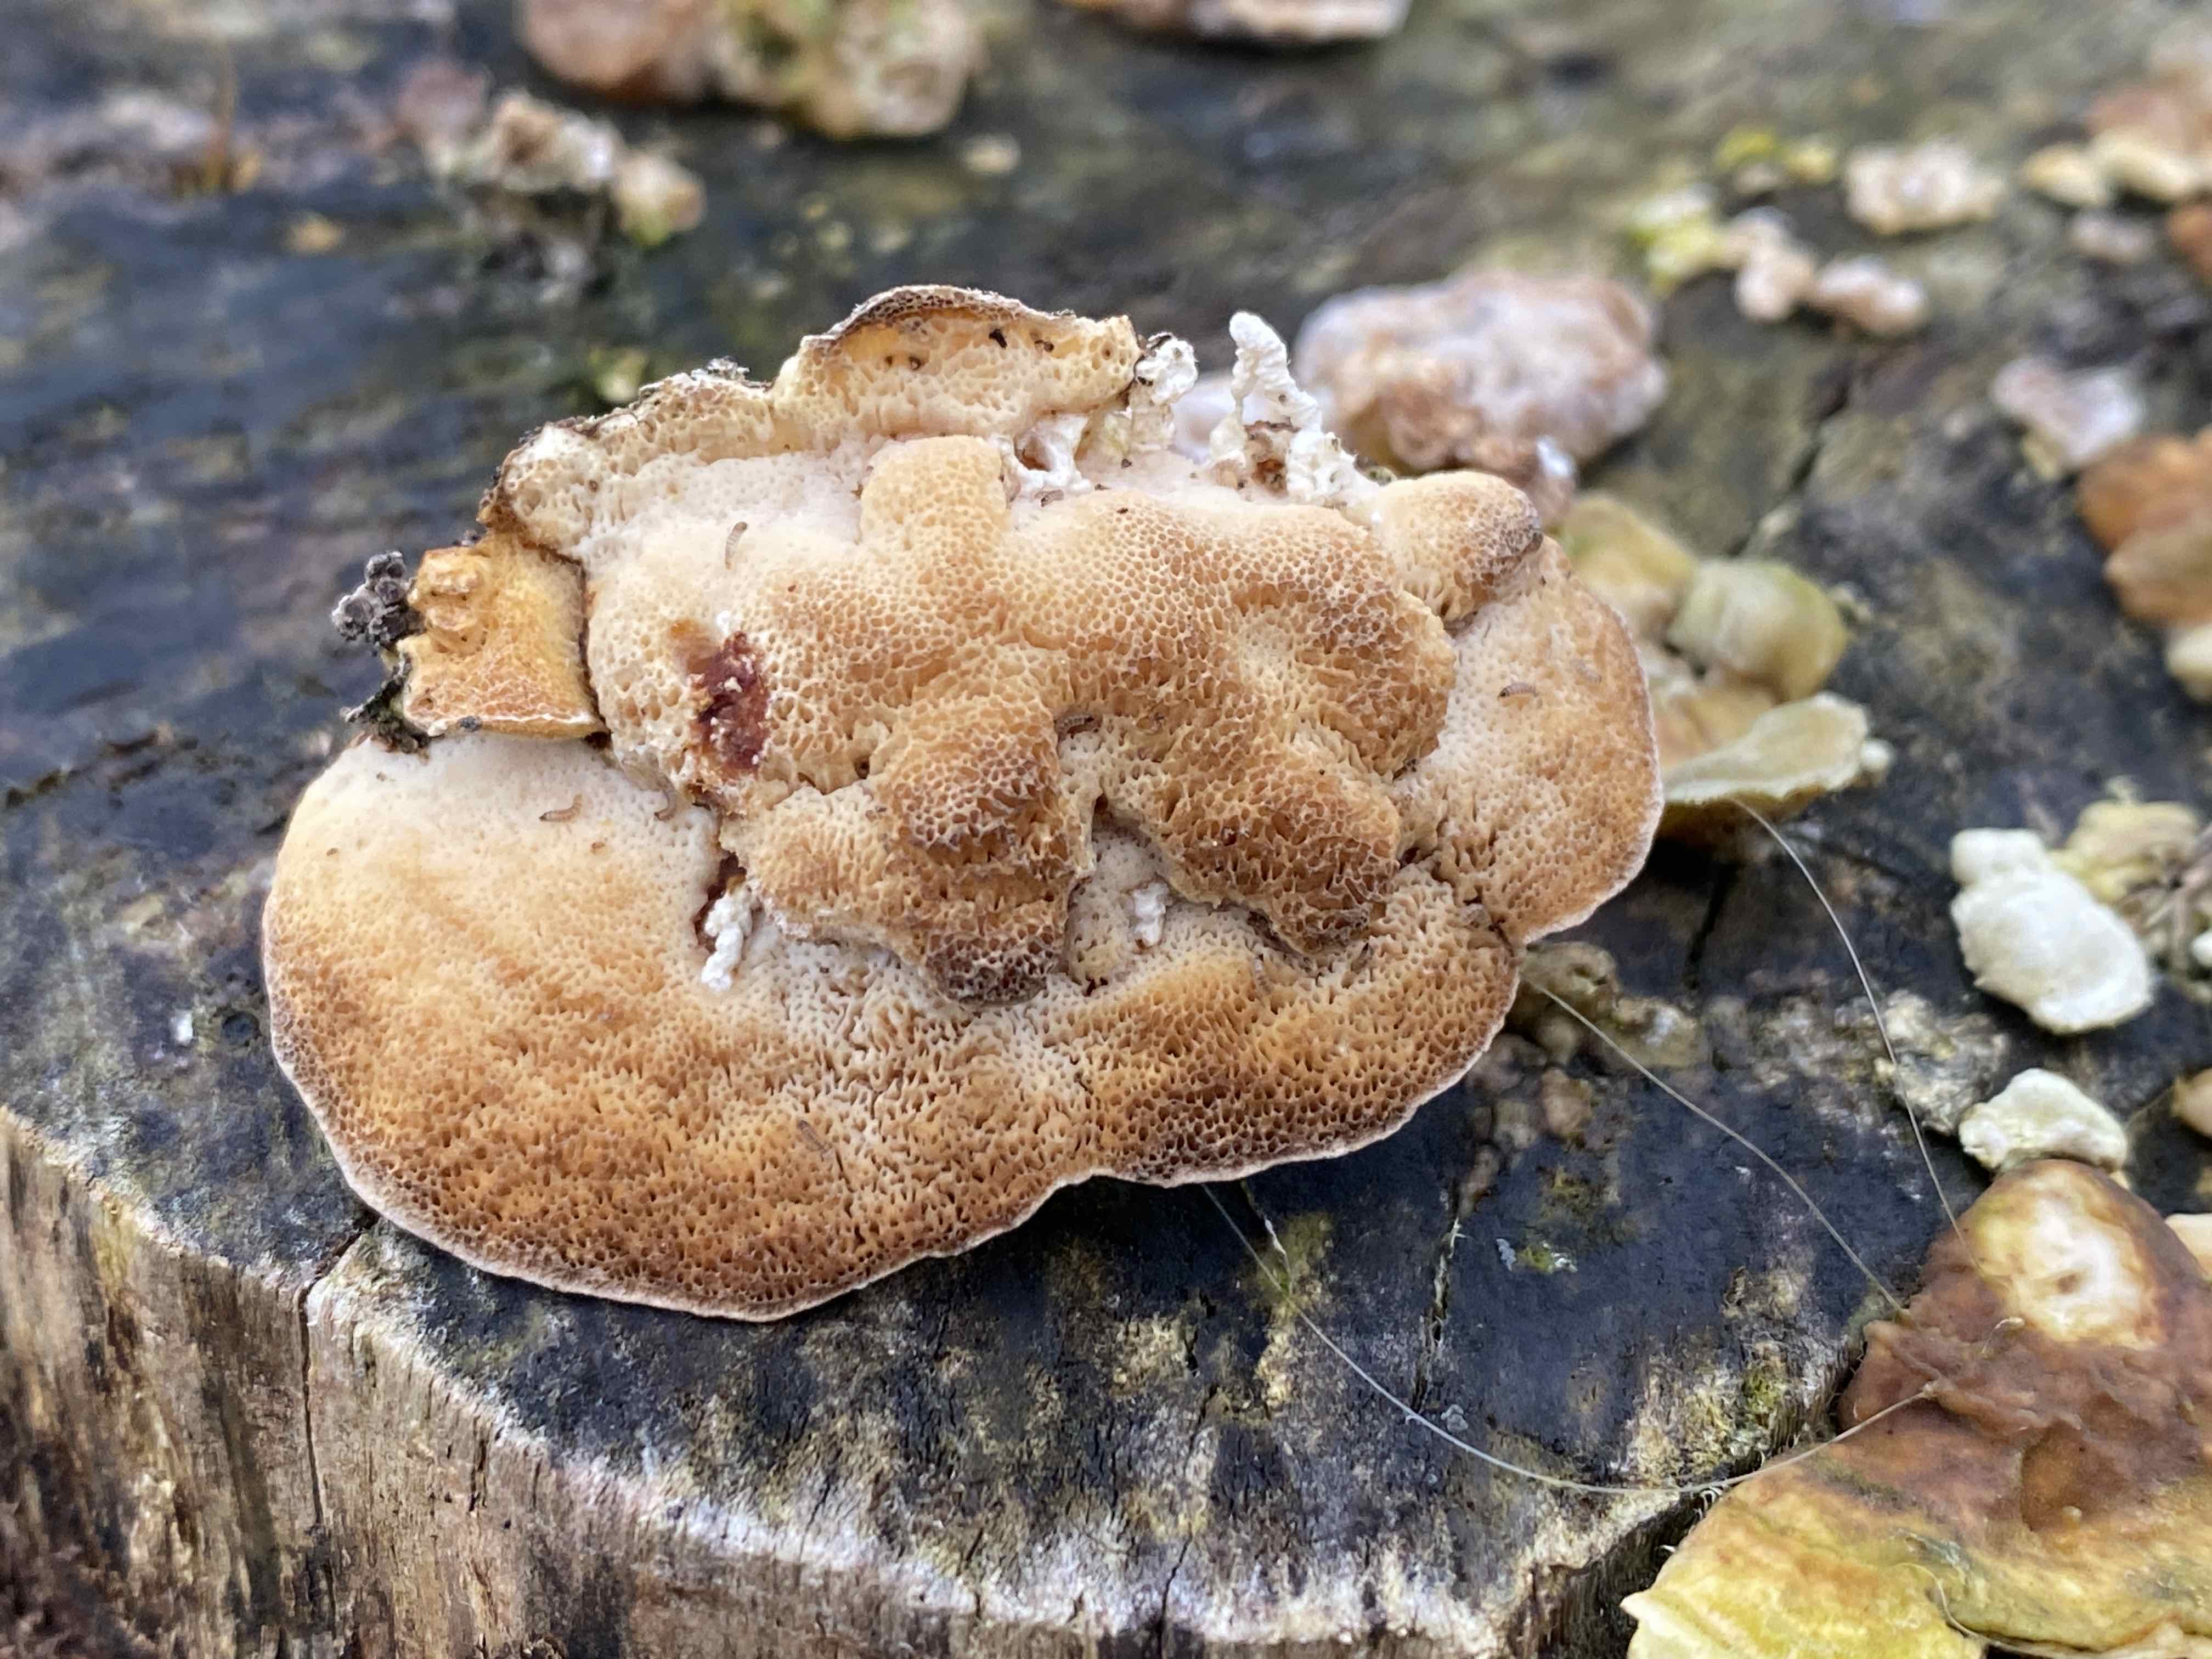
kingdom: Fungi
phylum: Basidiomycota
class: Agaricomycetes
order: Polyporales
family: Polyporaceae
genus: Trametes
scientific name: Trametes ochracea
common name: bæltet læderporesvamp
